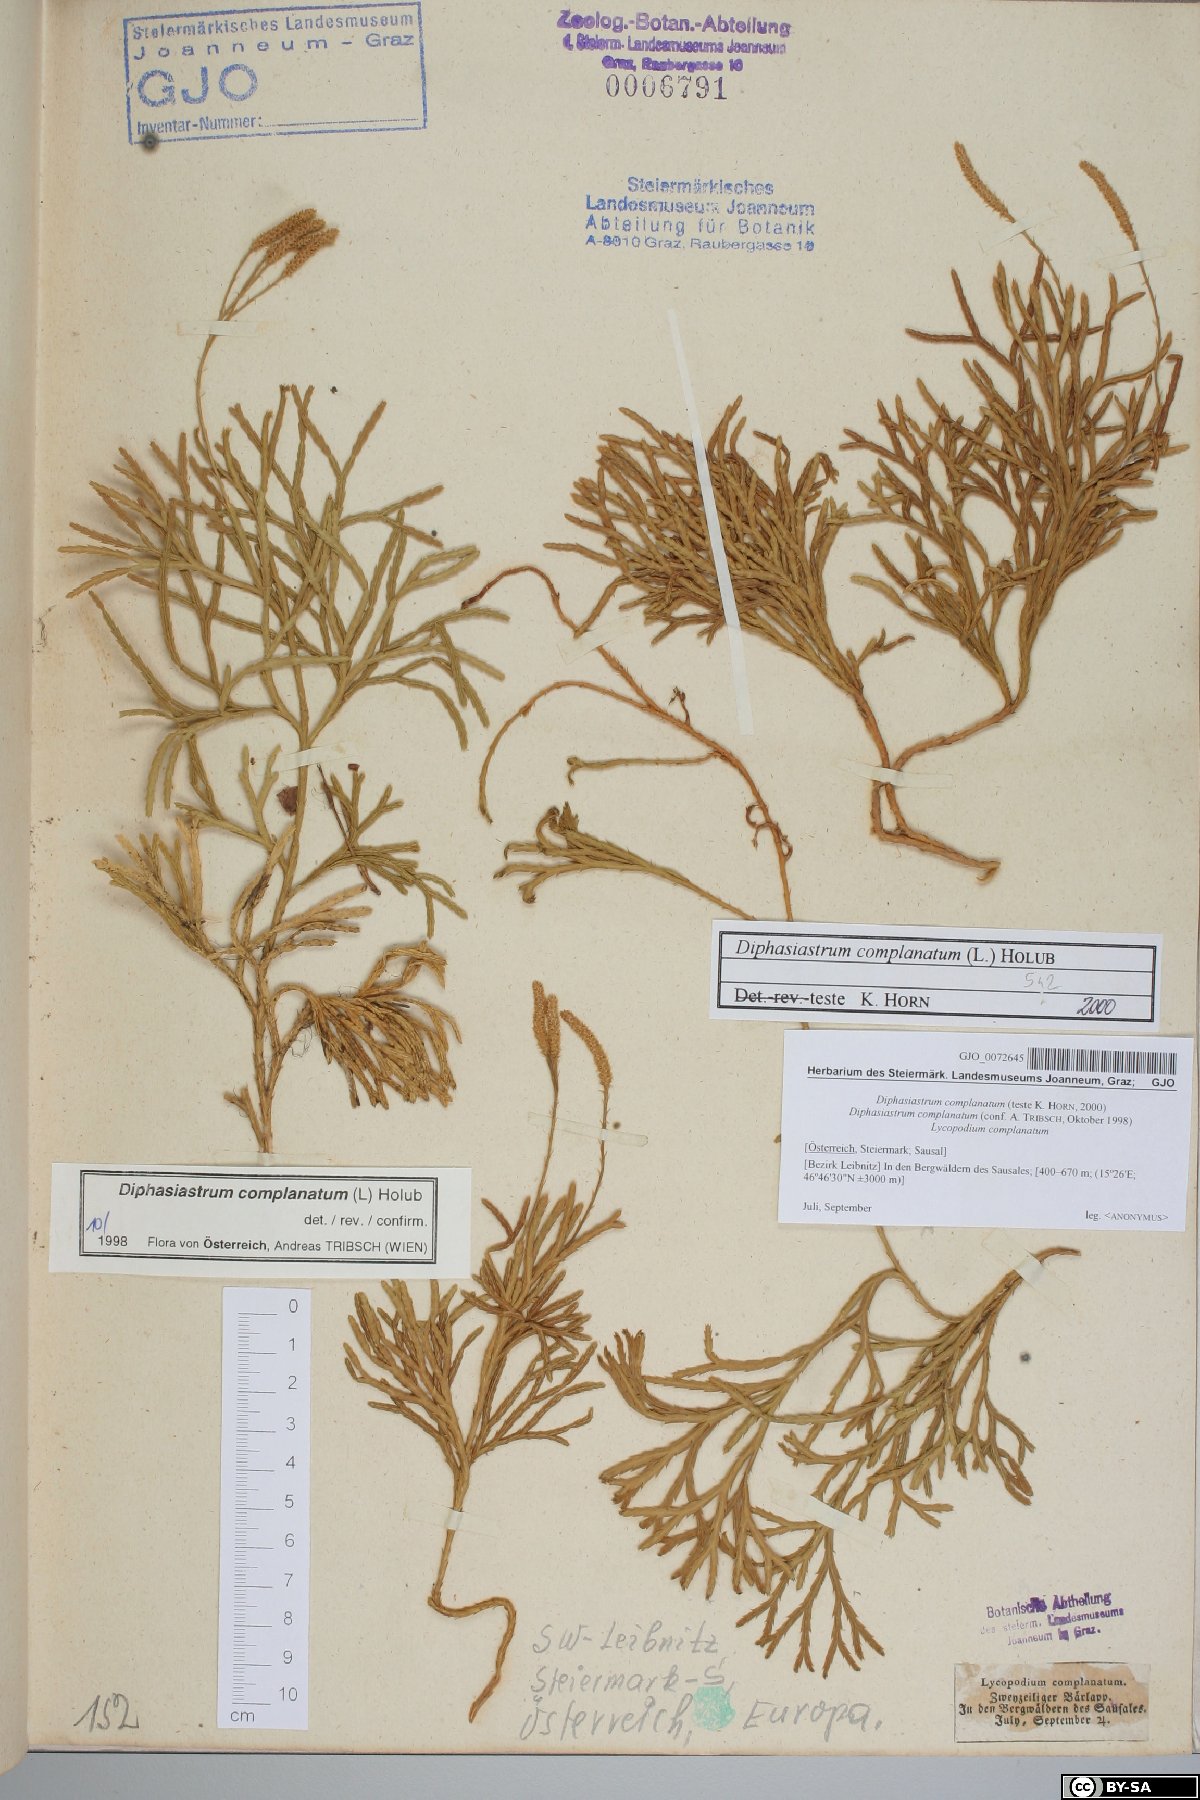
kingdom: Plantae
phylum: Tracheophyta
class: Lycopodiopsida
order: Lycopodiales
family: Lycopodiaceae
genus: Diphasiastrum
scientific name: Diphasiastrum complanatum
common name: Northern running-pine
